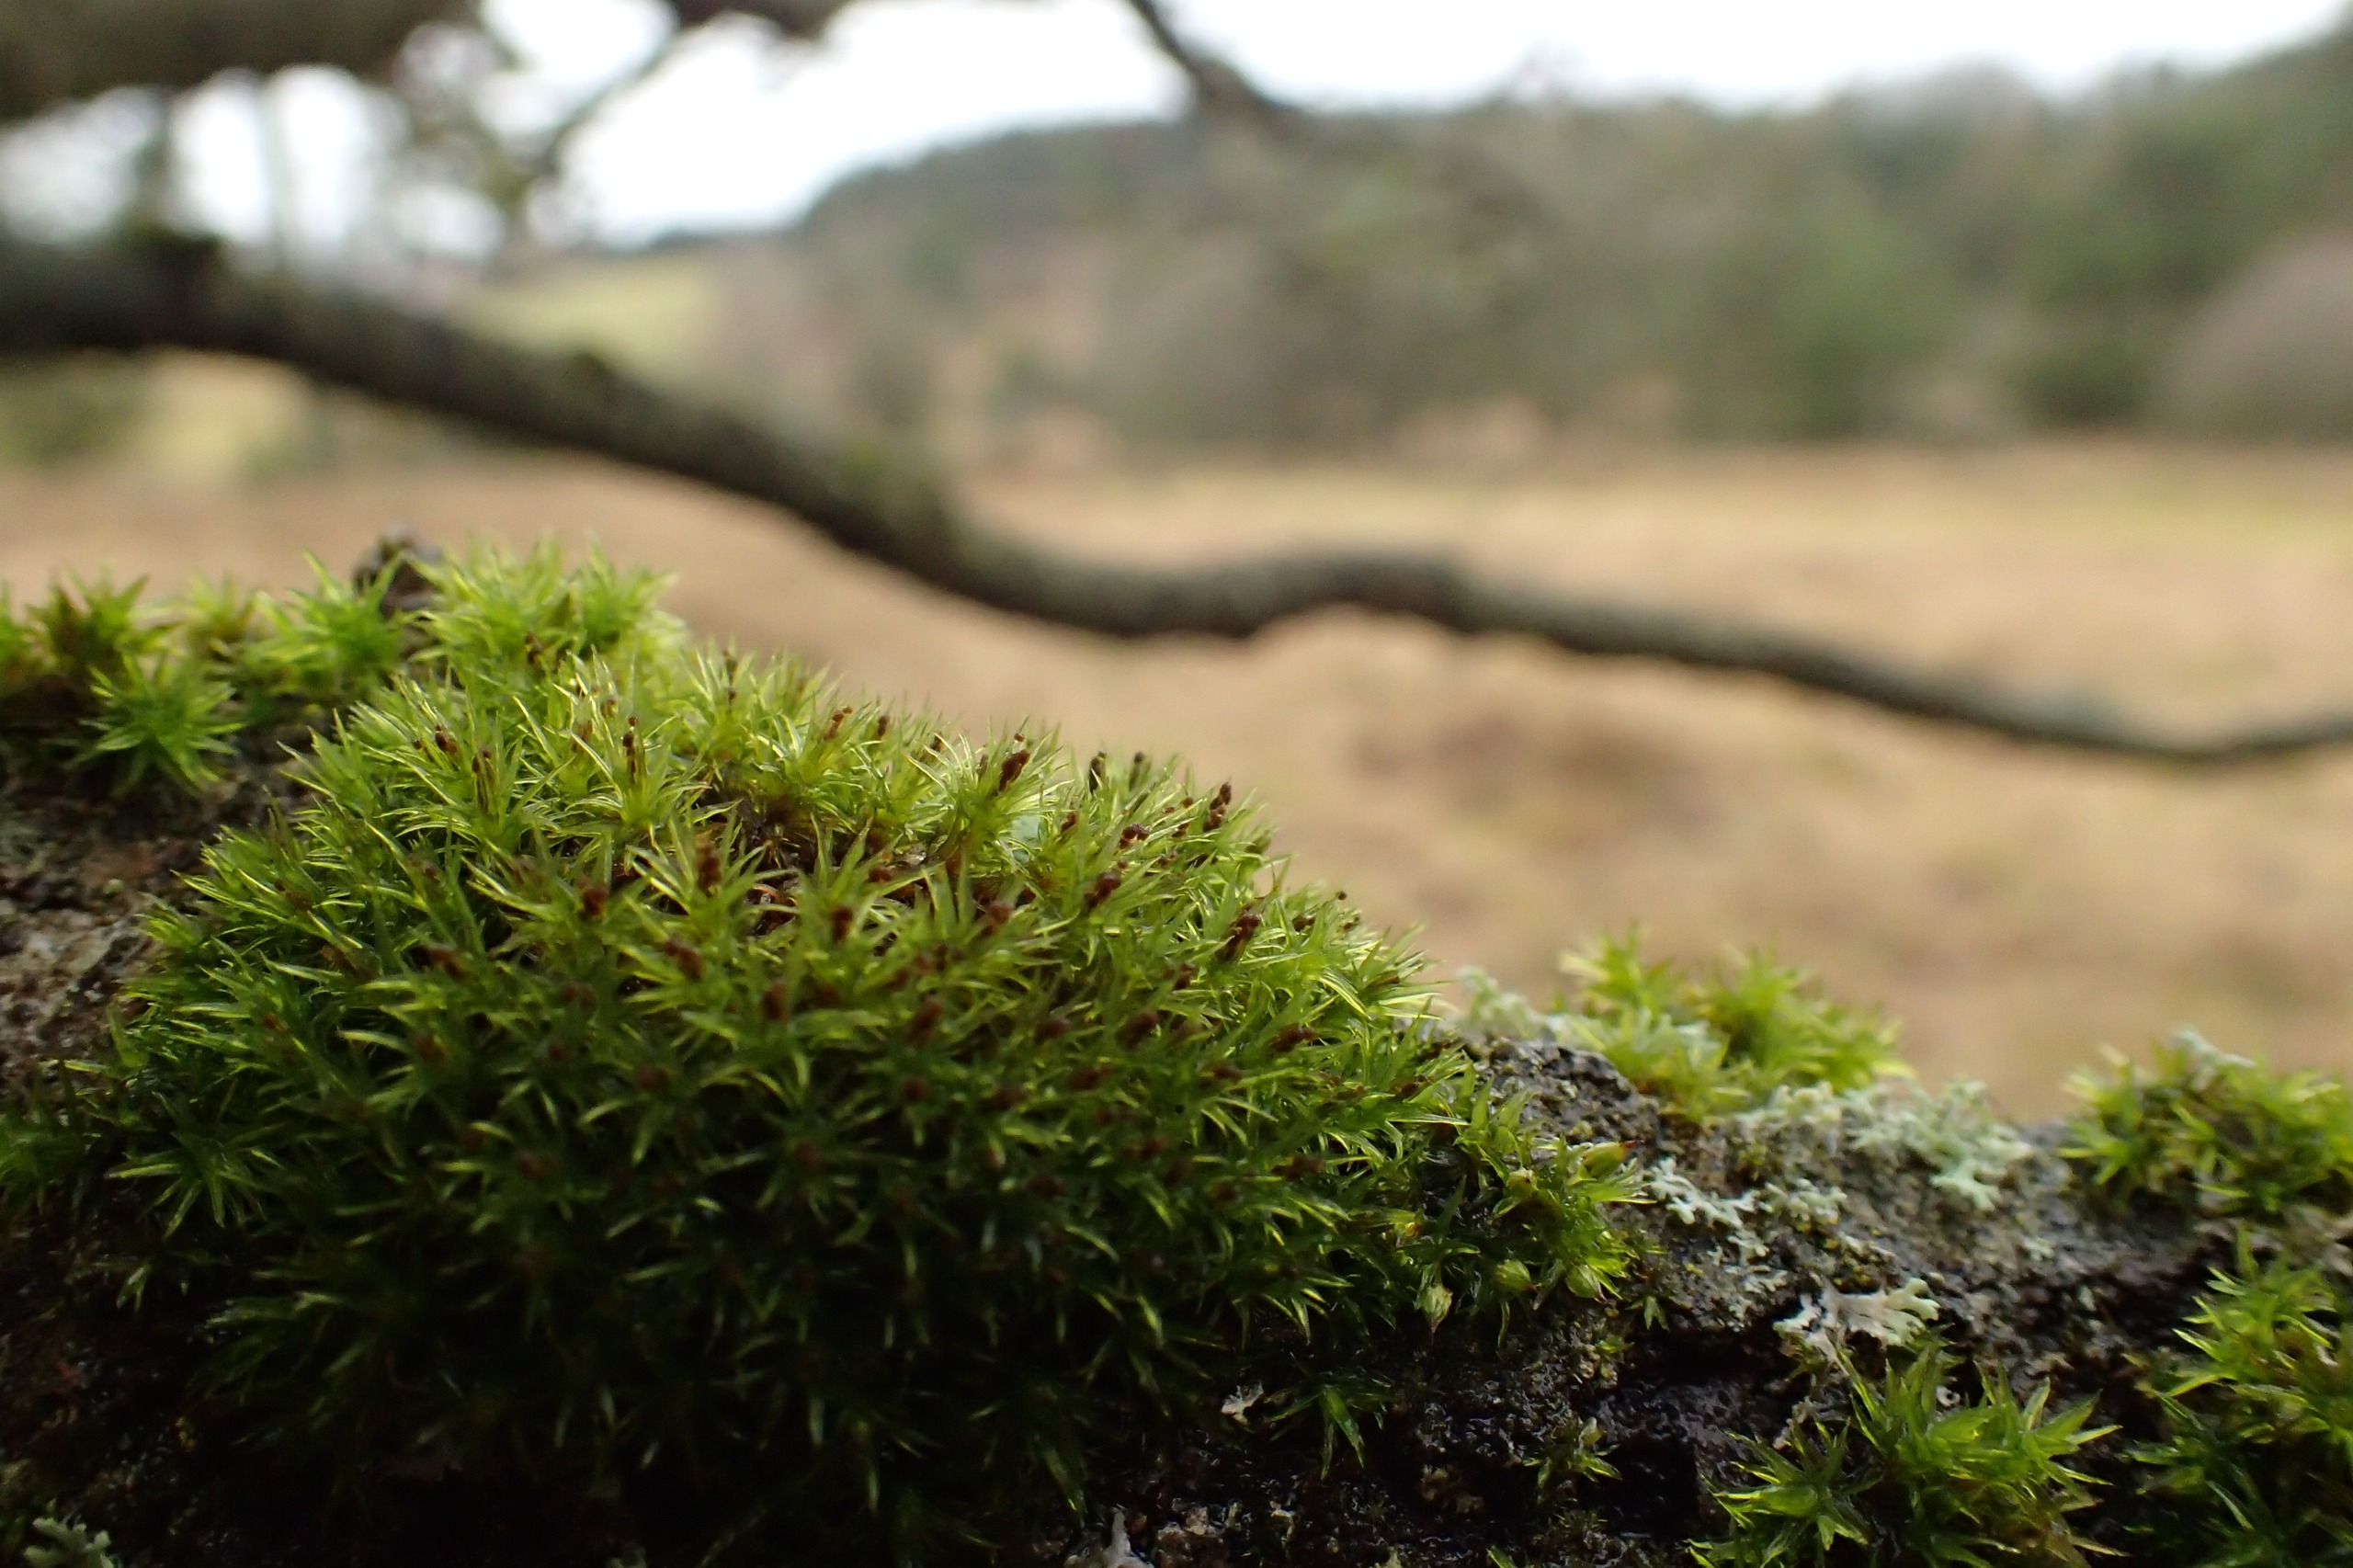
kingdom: Plantae
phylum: Bryophyta
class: Bryopsida
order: Orthotrichales
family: Orthotrichaceae
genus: Plenogemma
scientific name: Plenogemma phyllantha
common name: Stor låddenhætte
